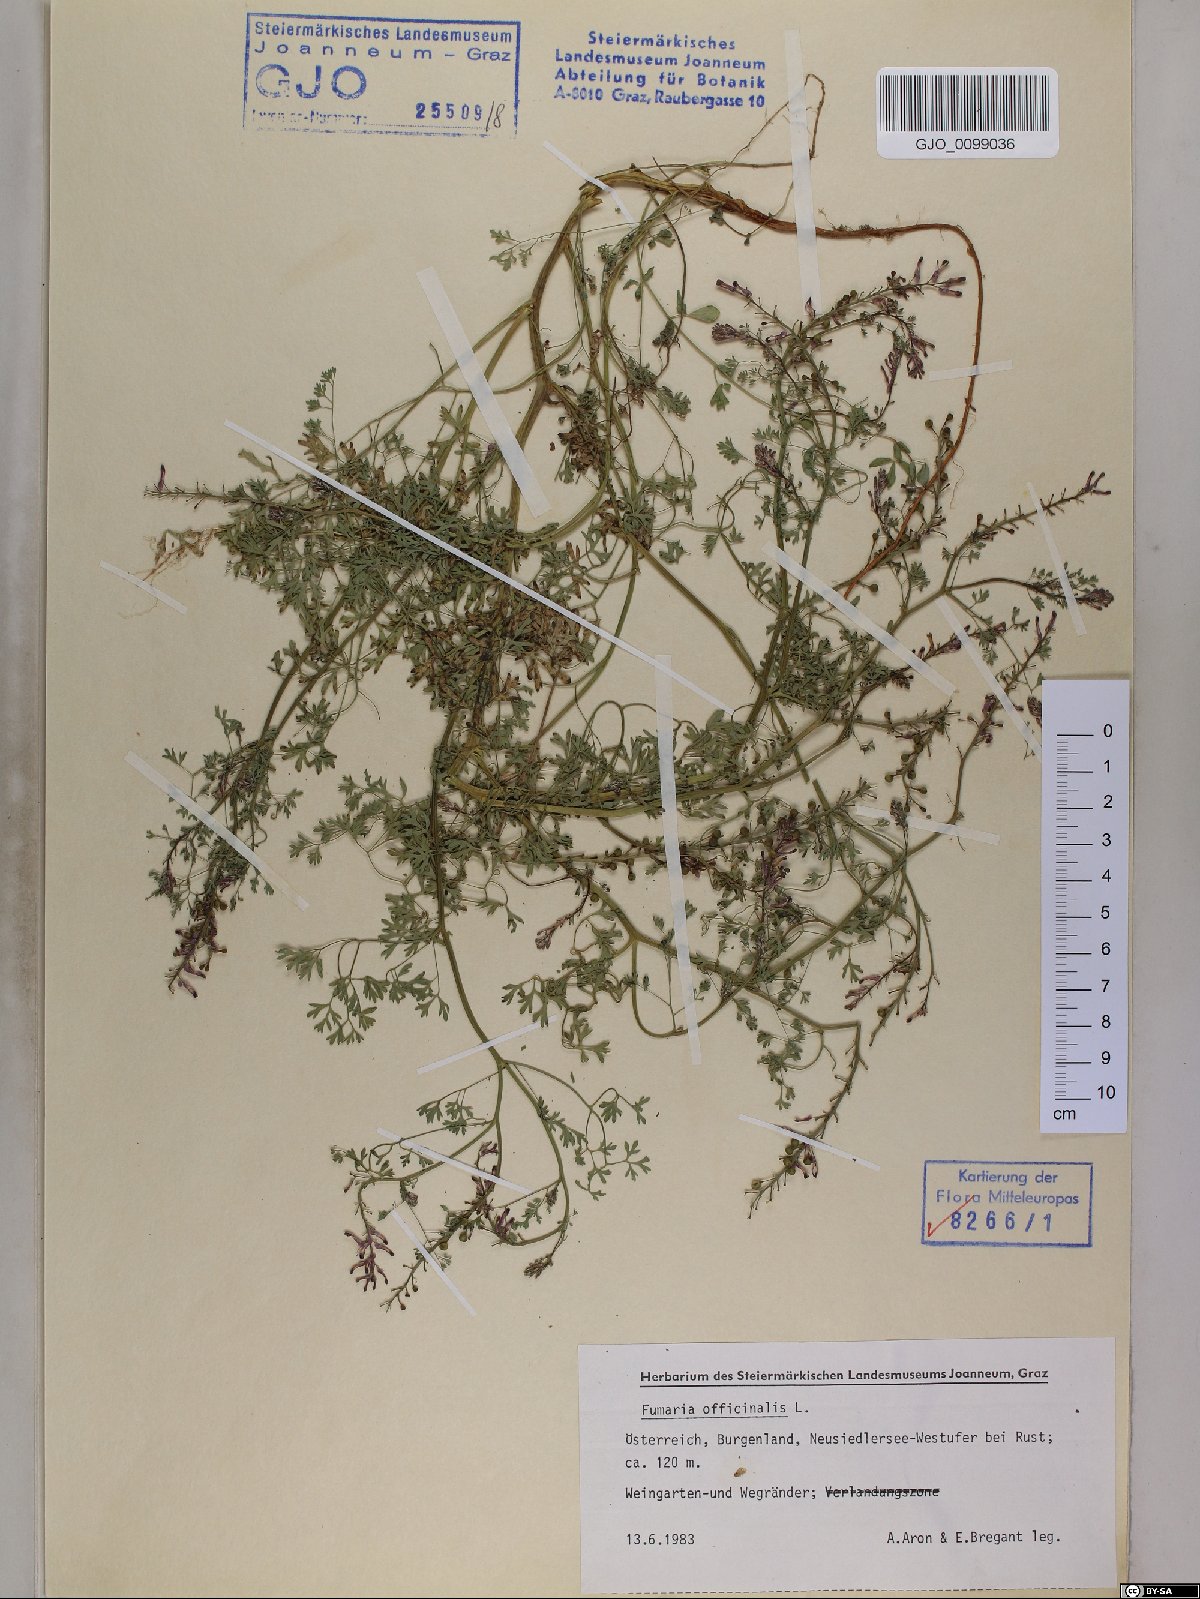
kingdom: Plantae
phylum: Tracheophyta
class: Magnoliopsida
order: Ranunculales
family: Papaveraceae
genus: Fumaria
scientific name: Fumaria officinalis
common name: Common fumitory
